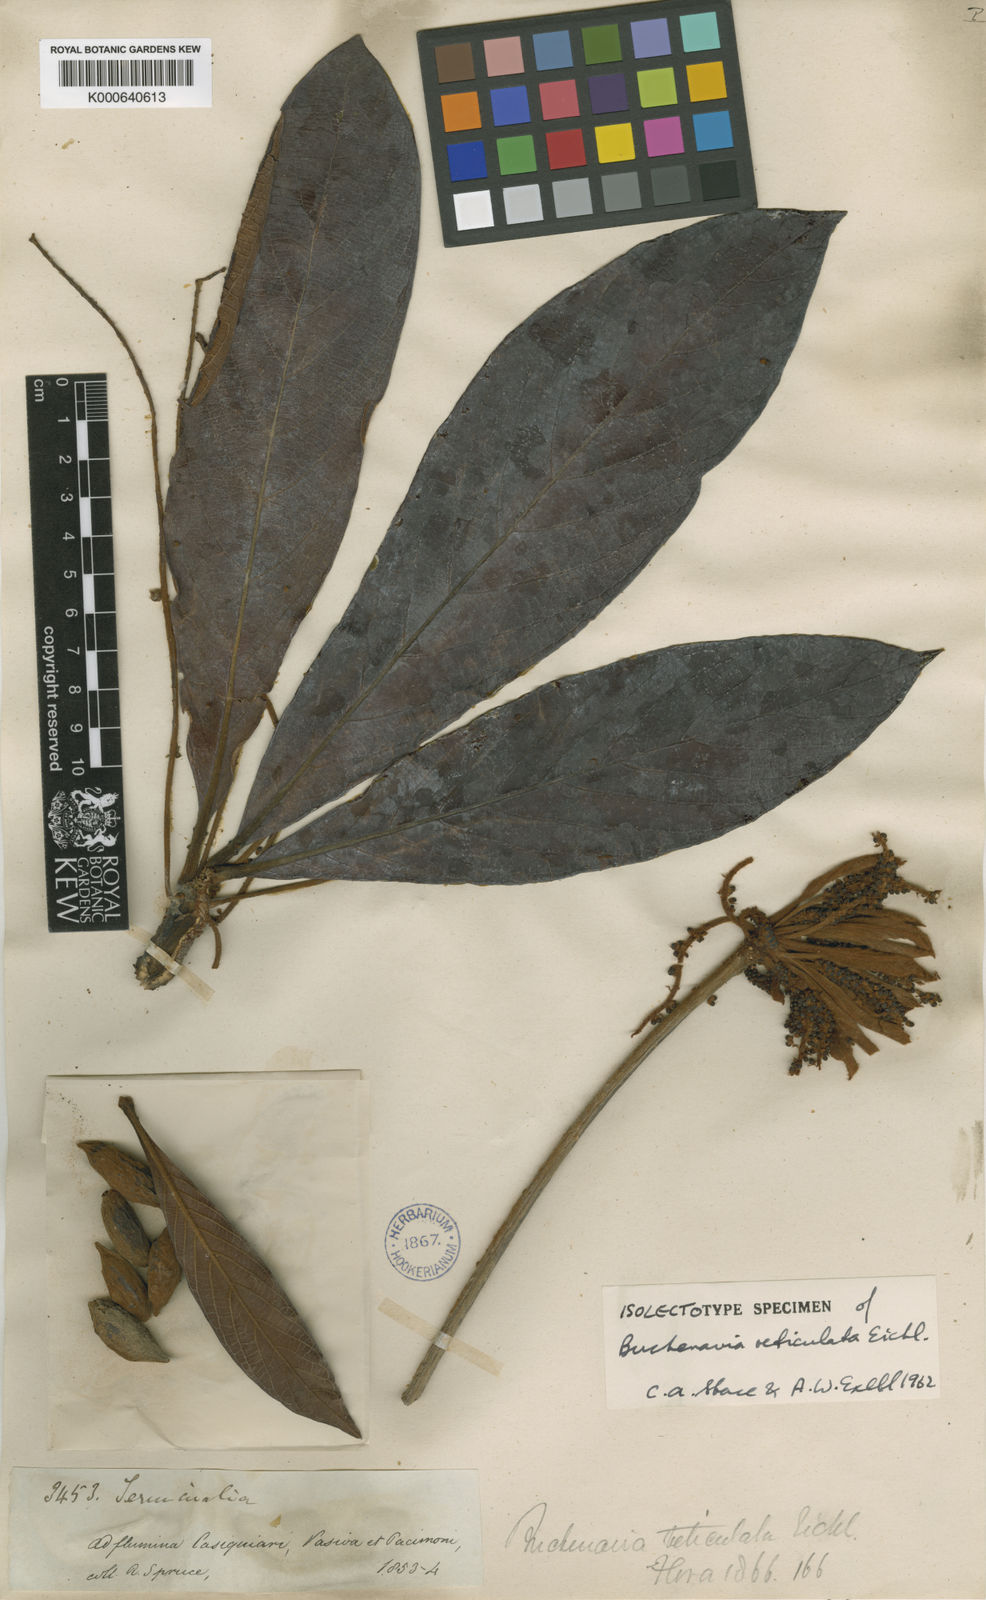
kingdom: Plantae
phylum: Tracheophyta
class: Magnoliopsida
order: Myrtales
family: Combretaceae
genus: Terminalia
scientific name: Terminalia pulcherrima
